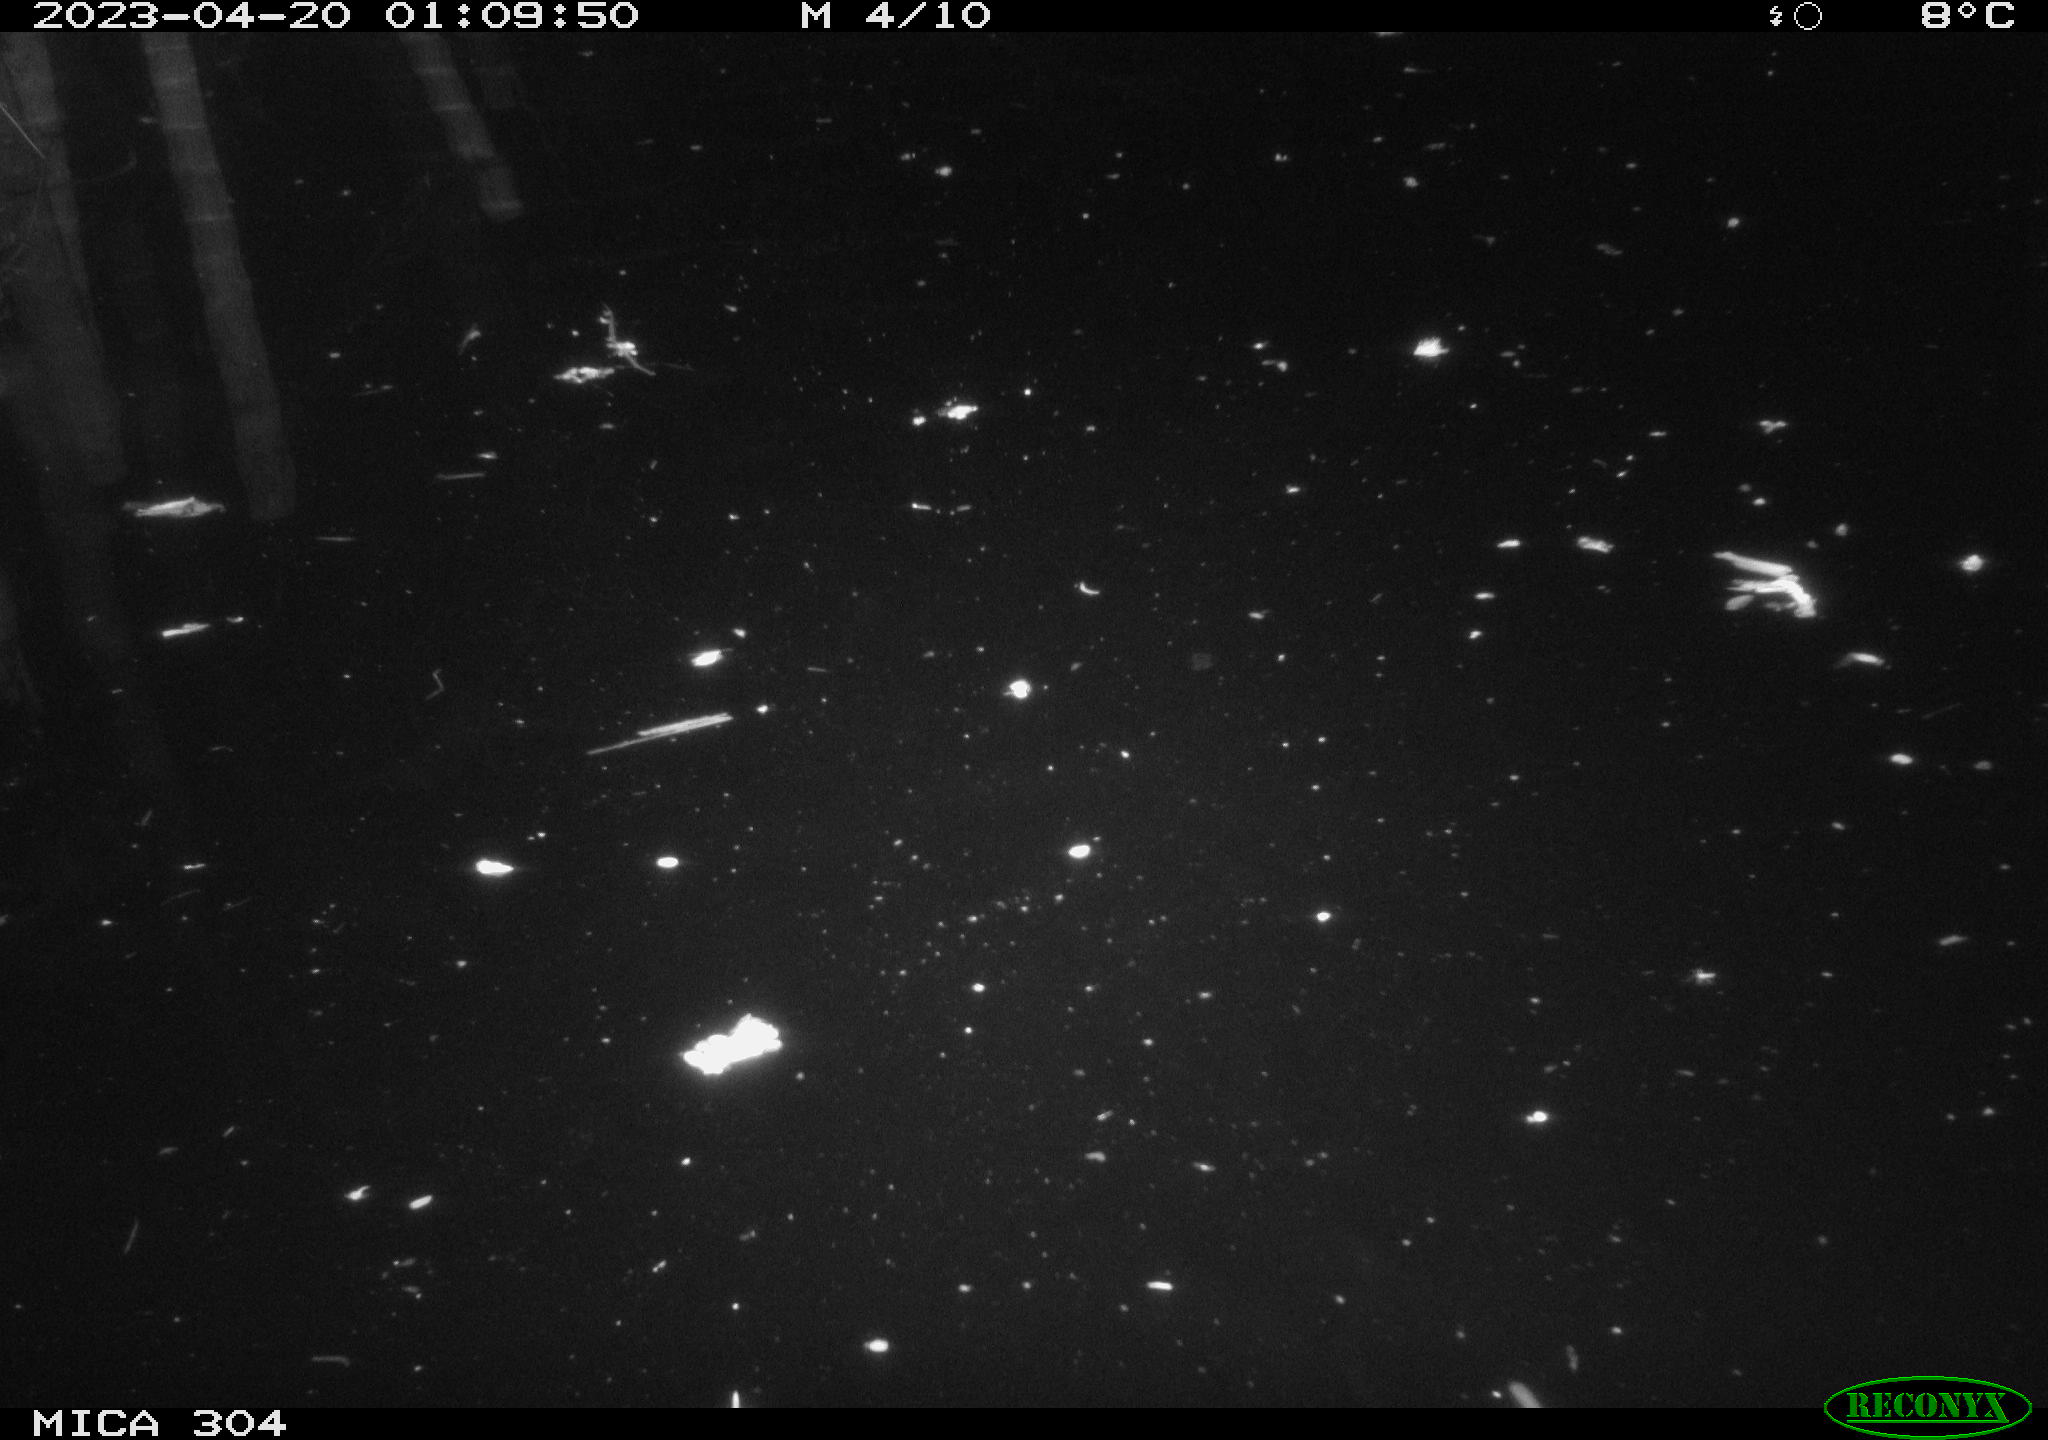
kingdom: Animalia
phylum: Chordata
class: Aves
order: Anseriformes
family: Anatidae
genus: Anas
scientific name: Anas
